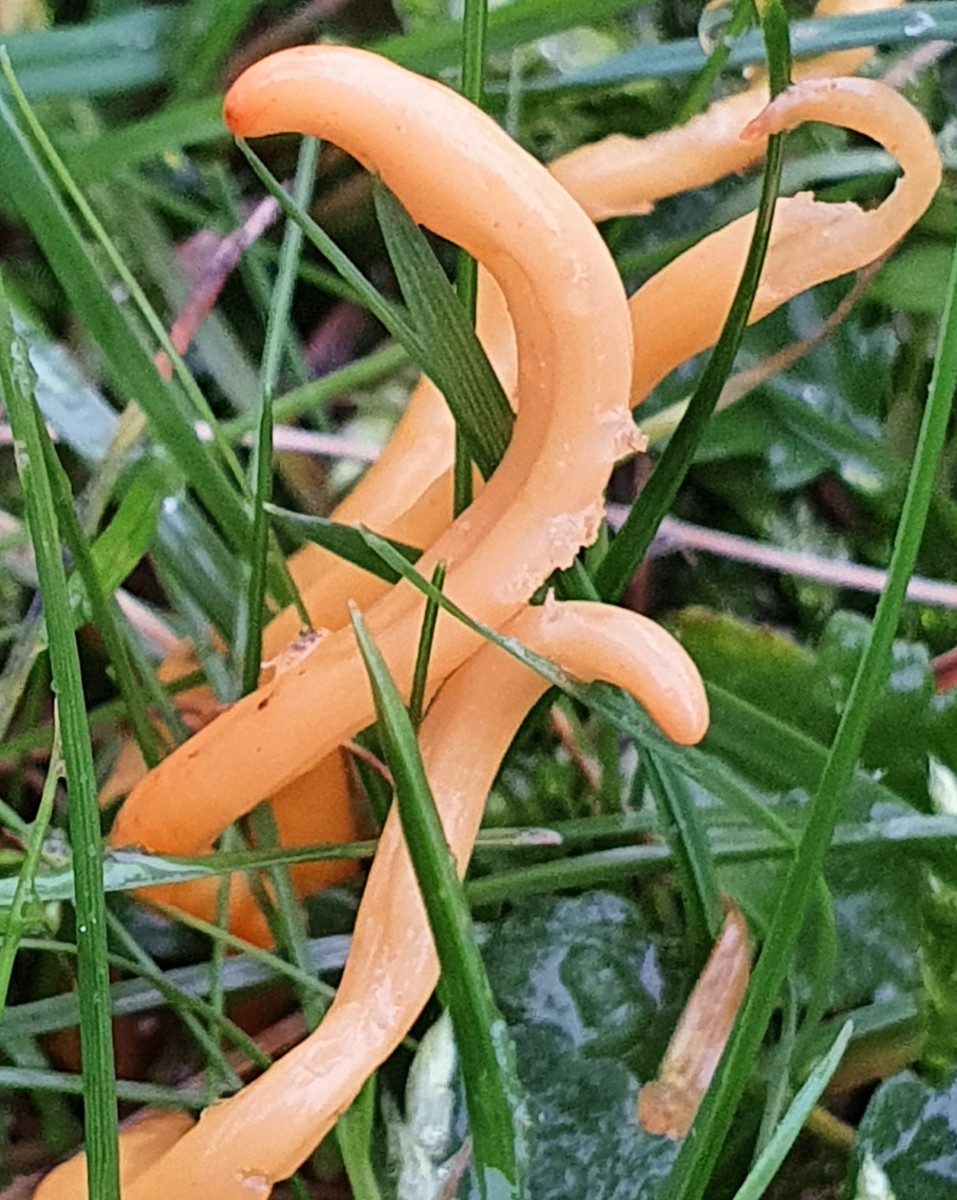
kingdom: Fungi
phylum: Basidiomycota
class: Agaricomycetes
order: Agaricales
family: Clavariaceae
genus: Clavulinopsis
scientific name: Clavulinopsis
